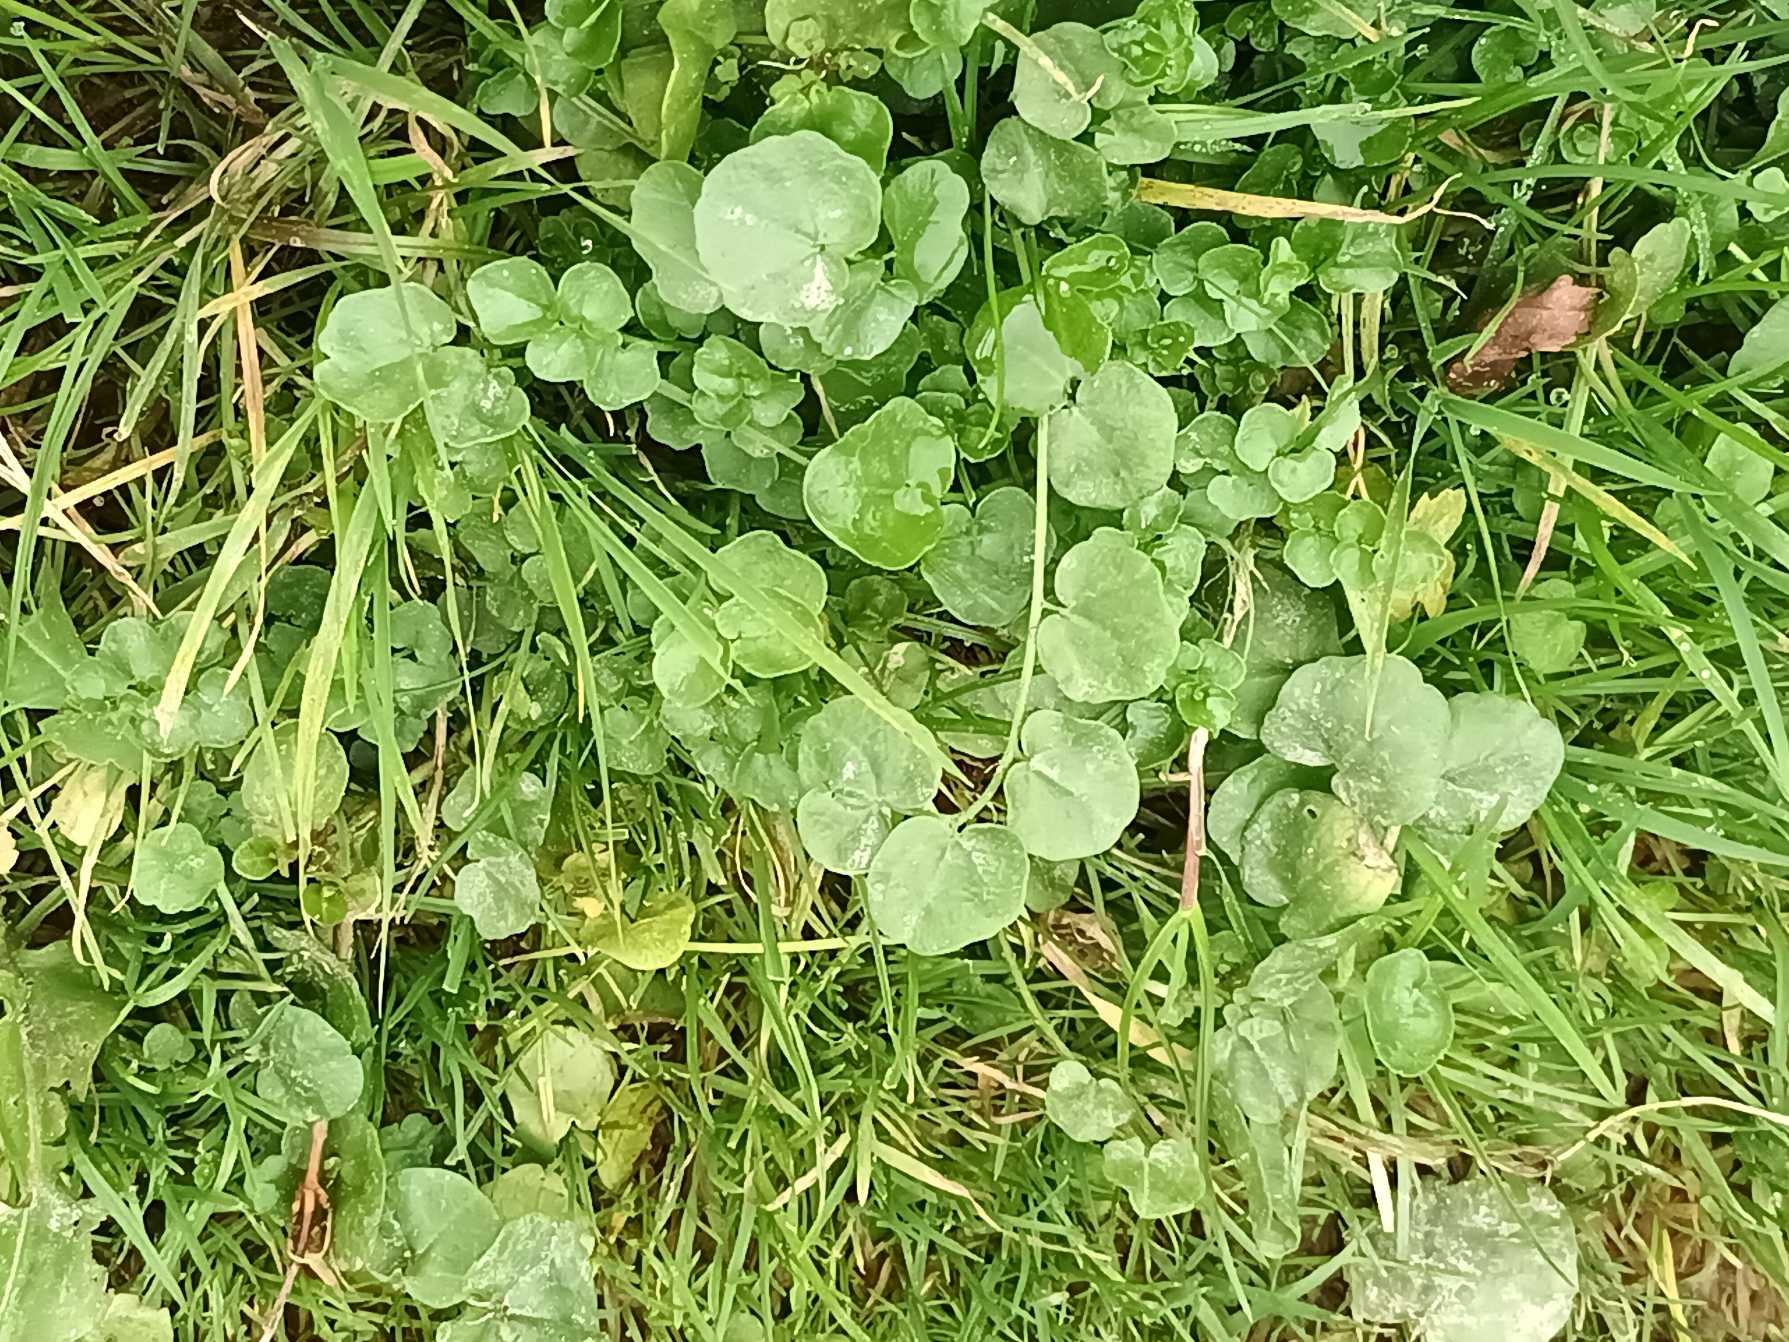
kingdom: Plantae
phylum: Tracheophyta
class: Magnoliopsida
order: Brassicales
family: Brassicaceae
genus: Cardamine
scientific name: Cardamine pratensis
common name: Engkarse
